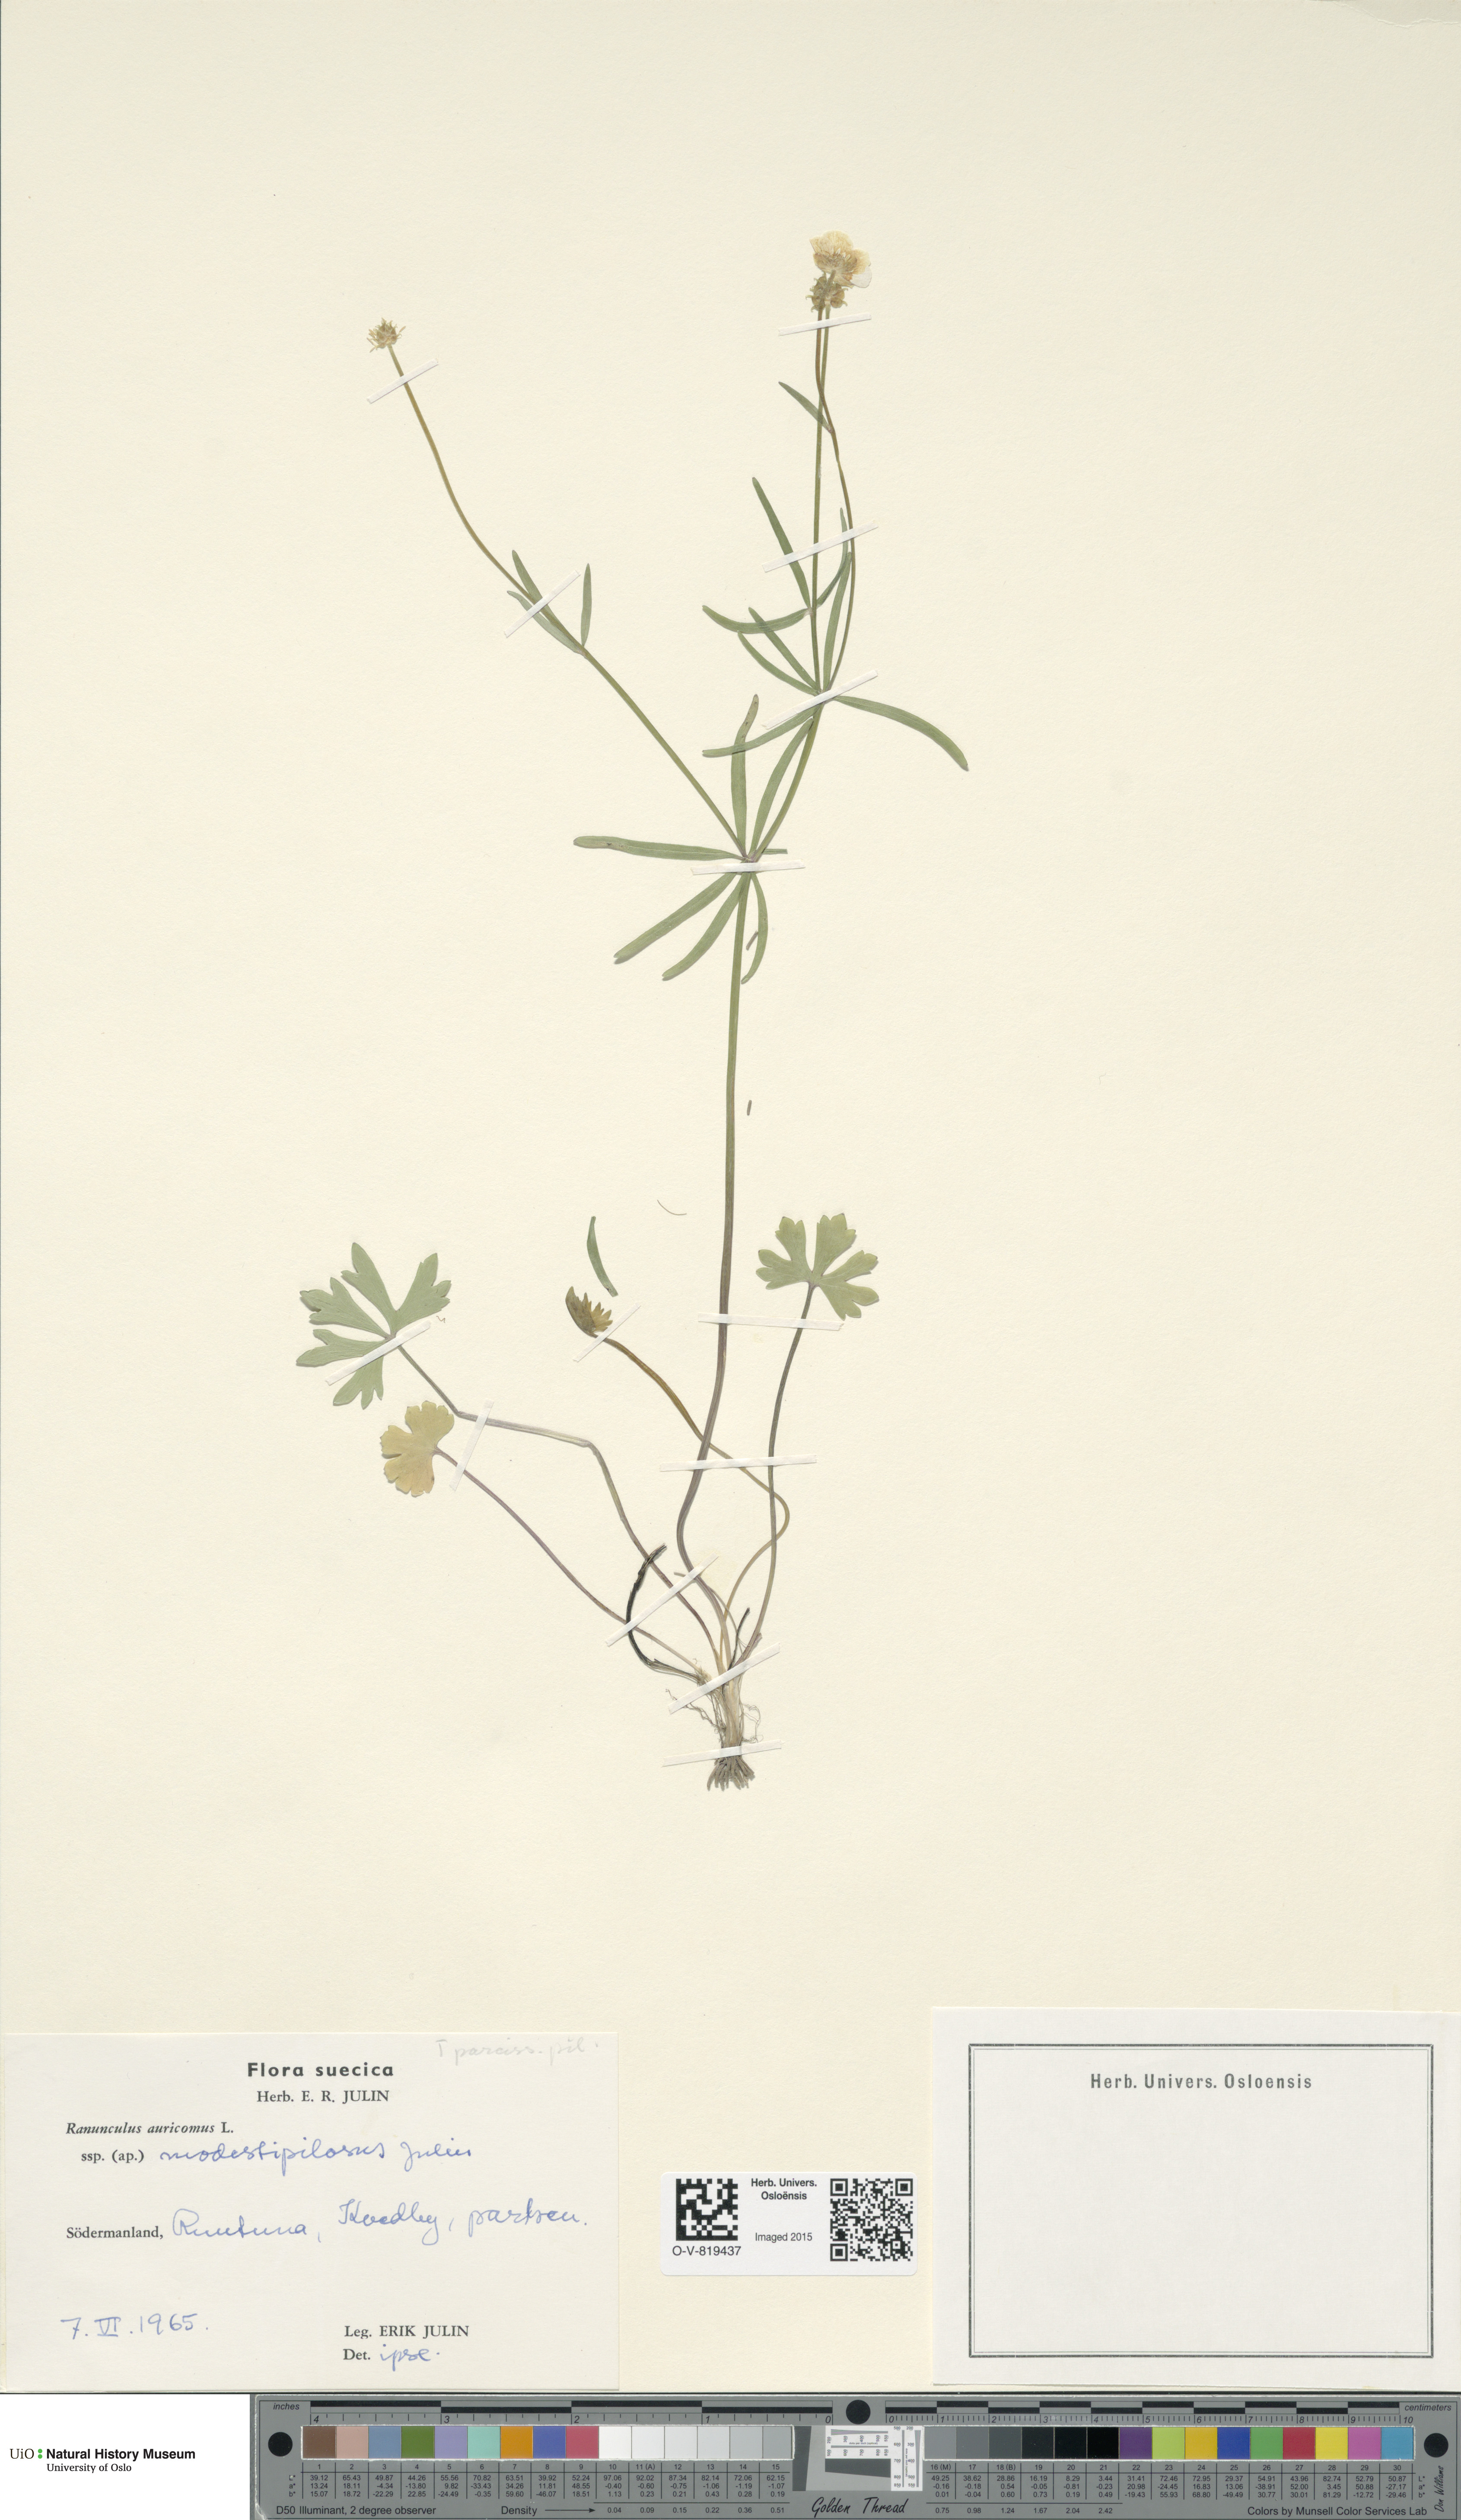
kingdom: Plantae
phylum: Tracheophyta
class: Magnoliopsida
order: Ranunculales
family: Ranunculaceae
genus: Ranunculus
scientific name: Ranunculus modestipilosus
